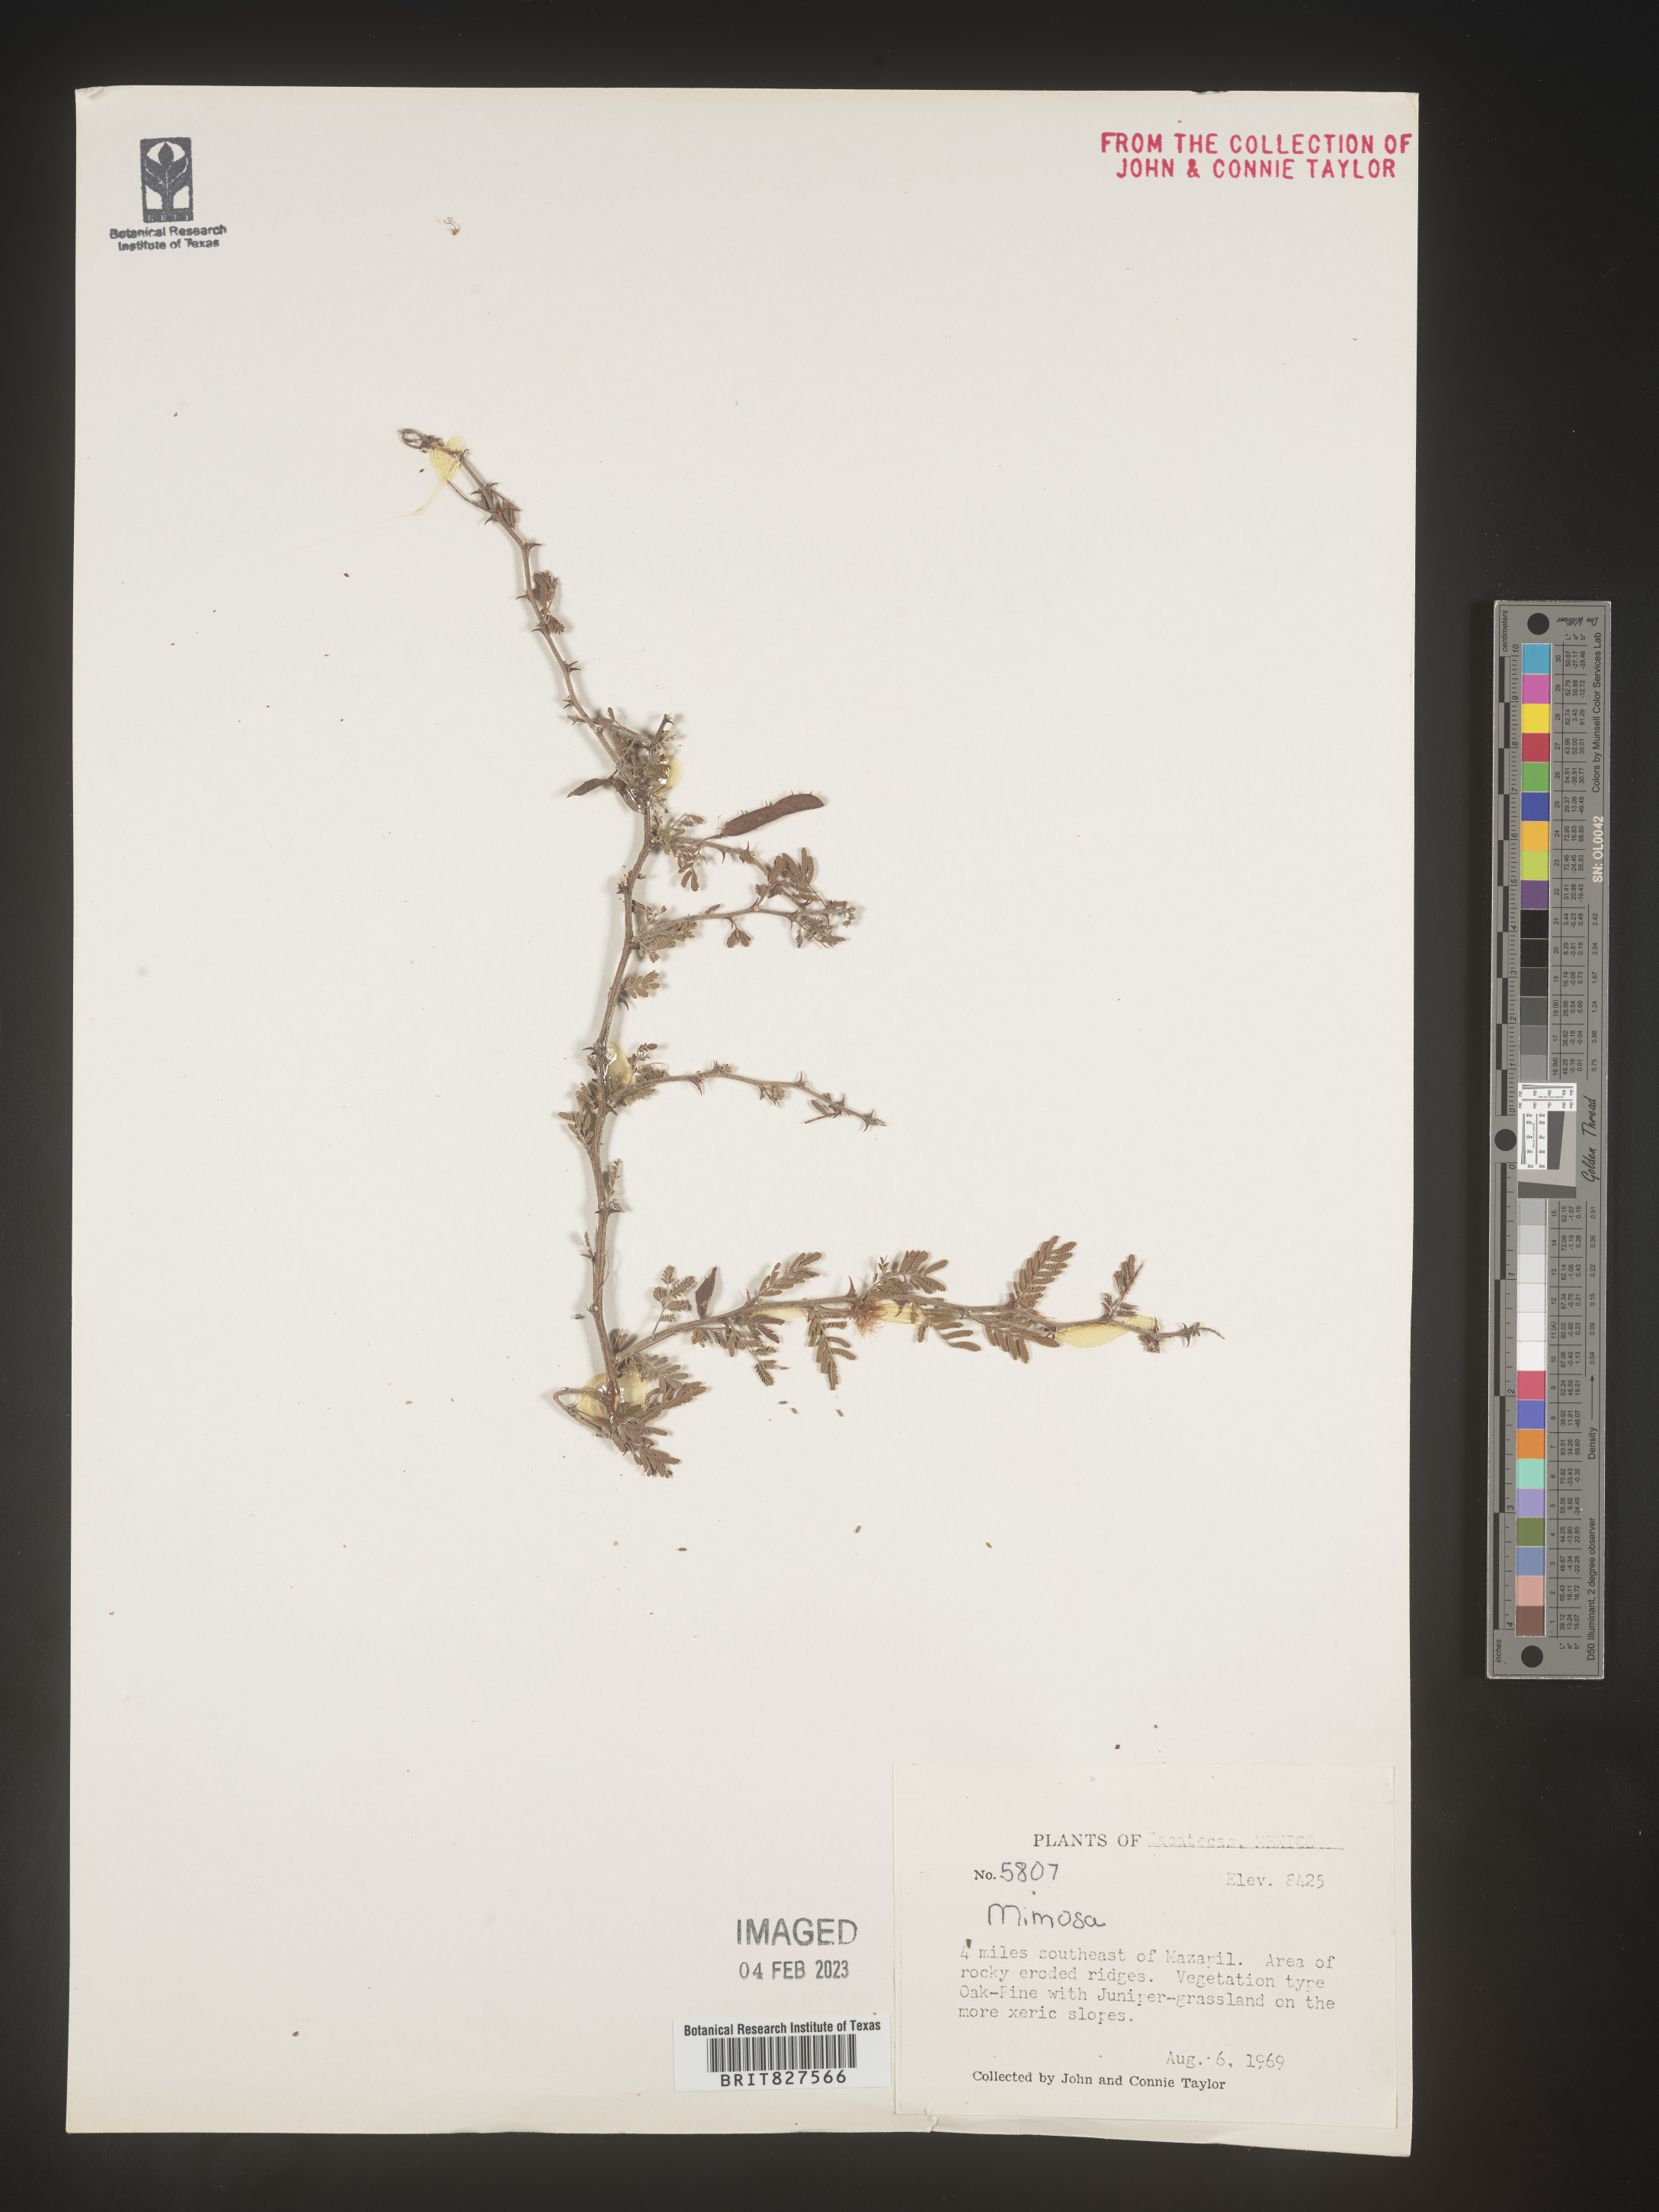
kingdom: Plantae
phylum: Tracheophyta
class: Magnoliopsida
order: Fabales
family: Fabaceae
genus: Mimosa
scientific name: Mimosa
